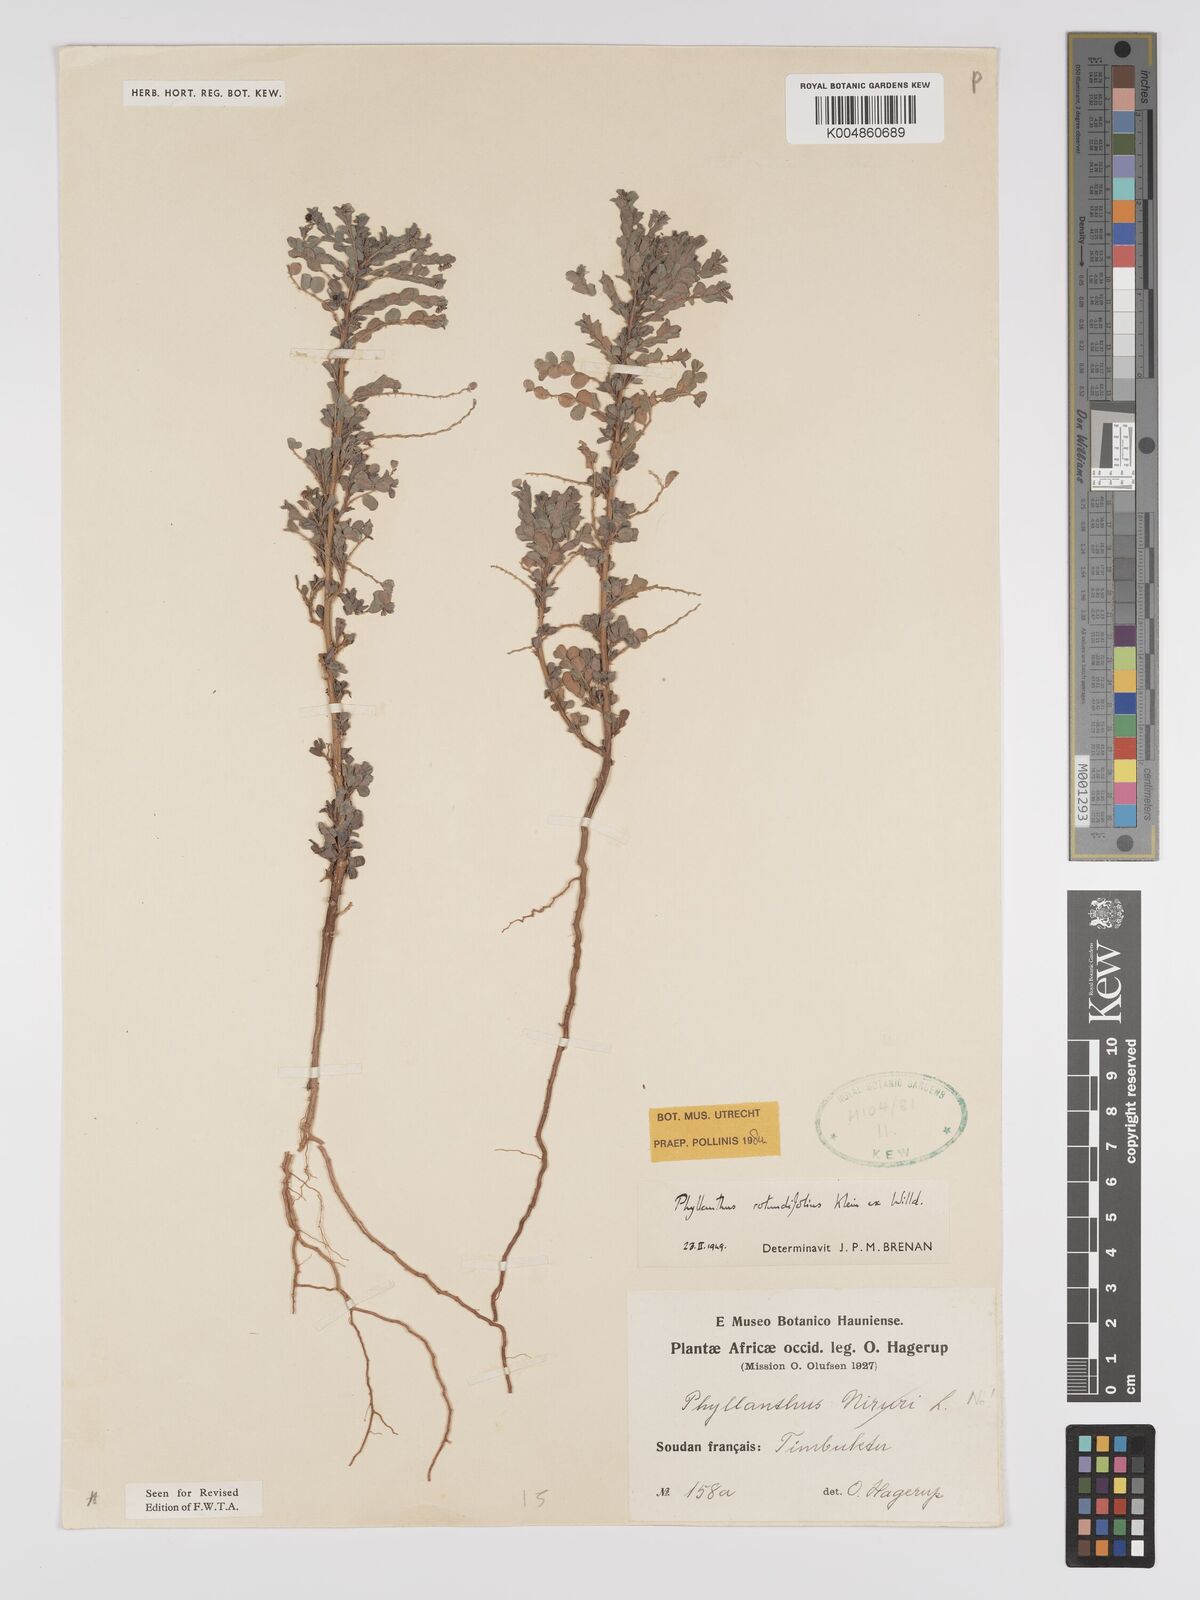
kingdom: Plantae
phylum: Tracheophyta
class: Magnoliopsida
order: Malpighiales
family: Phyllanthaceae
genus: Phyllanthus
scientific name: Phyllanthus
